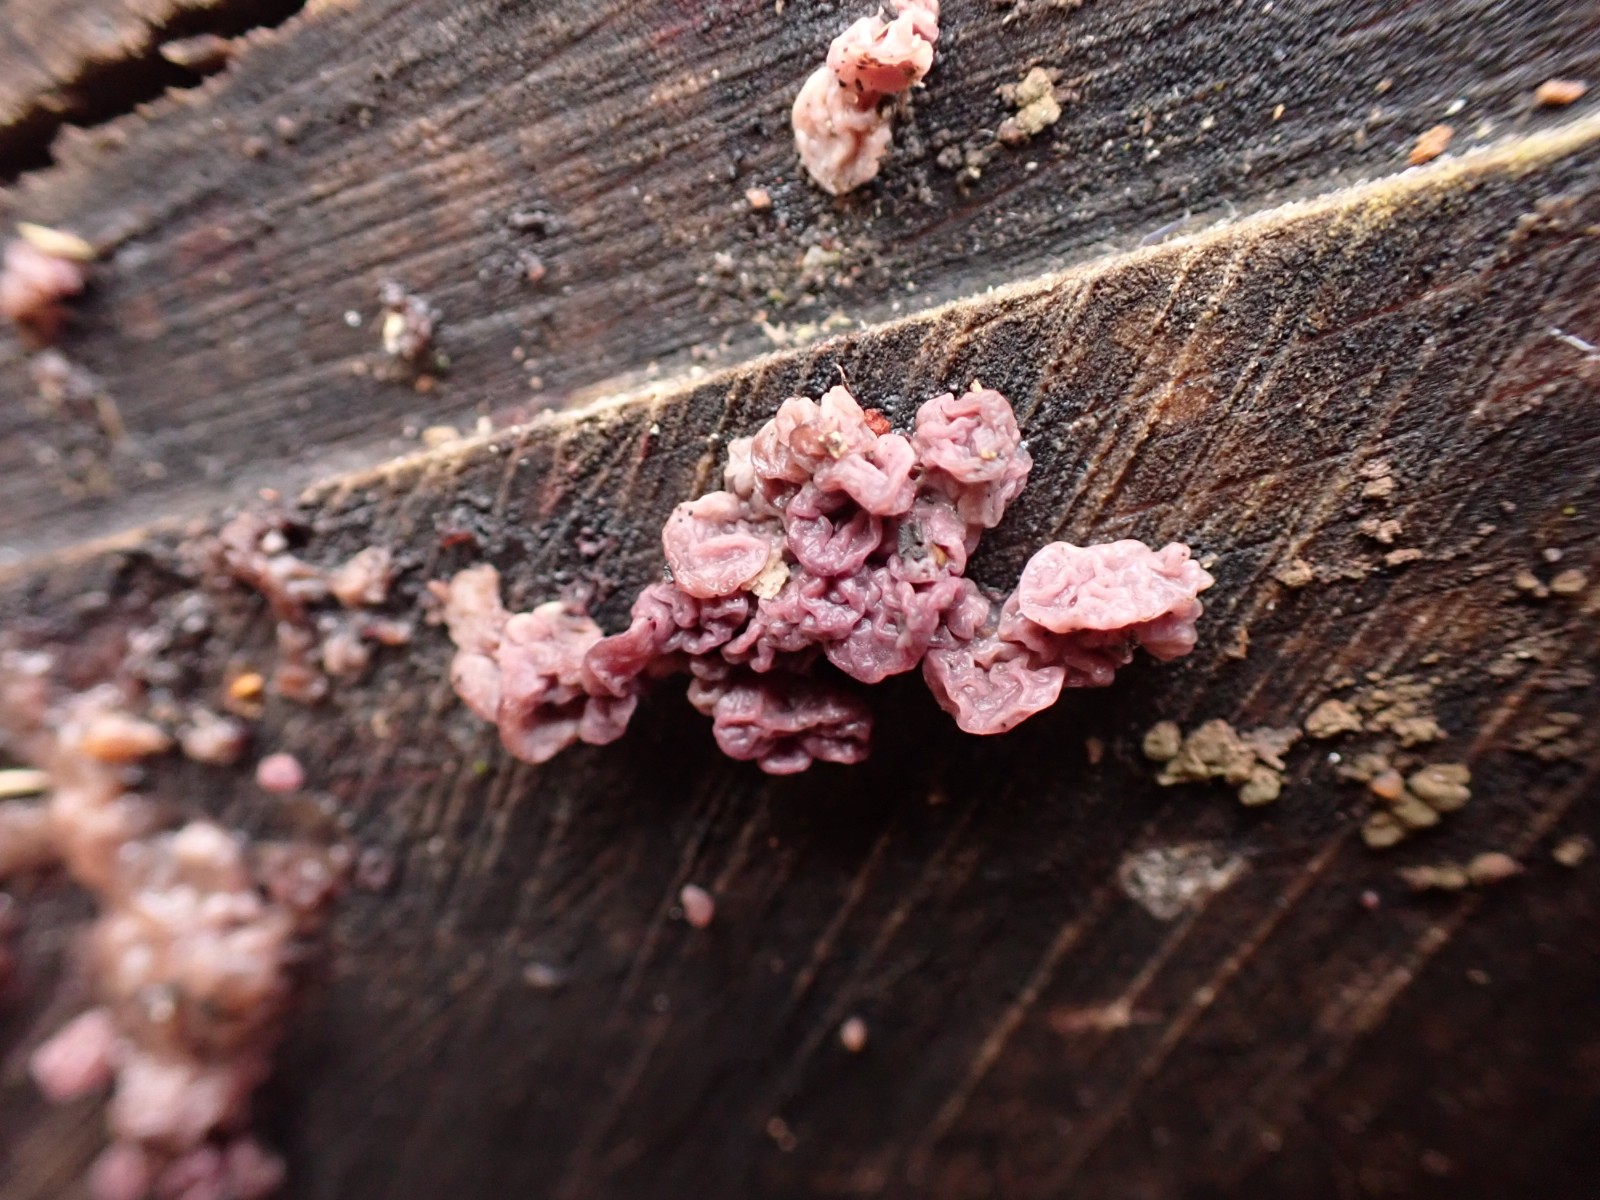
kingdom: Fungi
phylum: Ascomycota
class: Leotiomycetes
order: Helotiales
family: Gelatinodiscaceae
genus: Ascocoryne
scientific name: Ascocoryne sarcoides
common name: rødlilla sejskive
